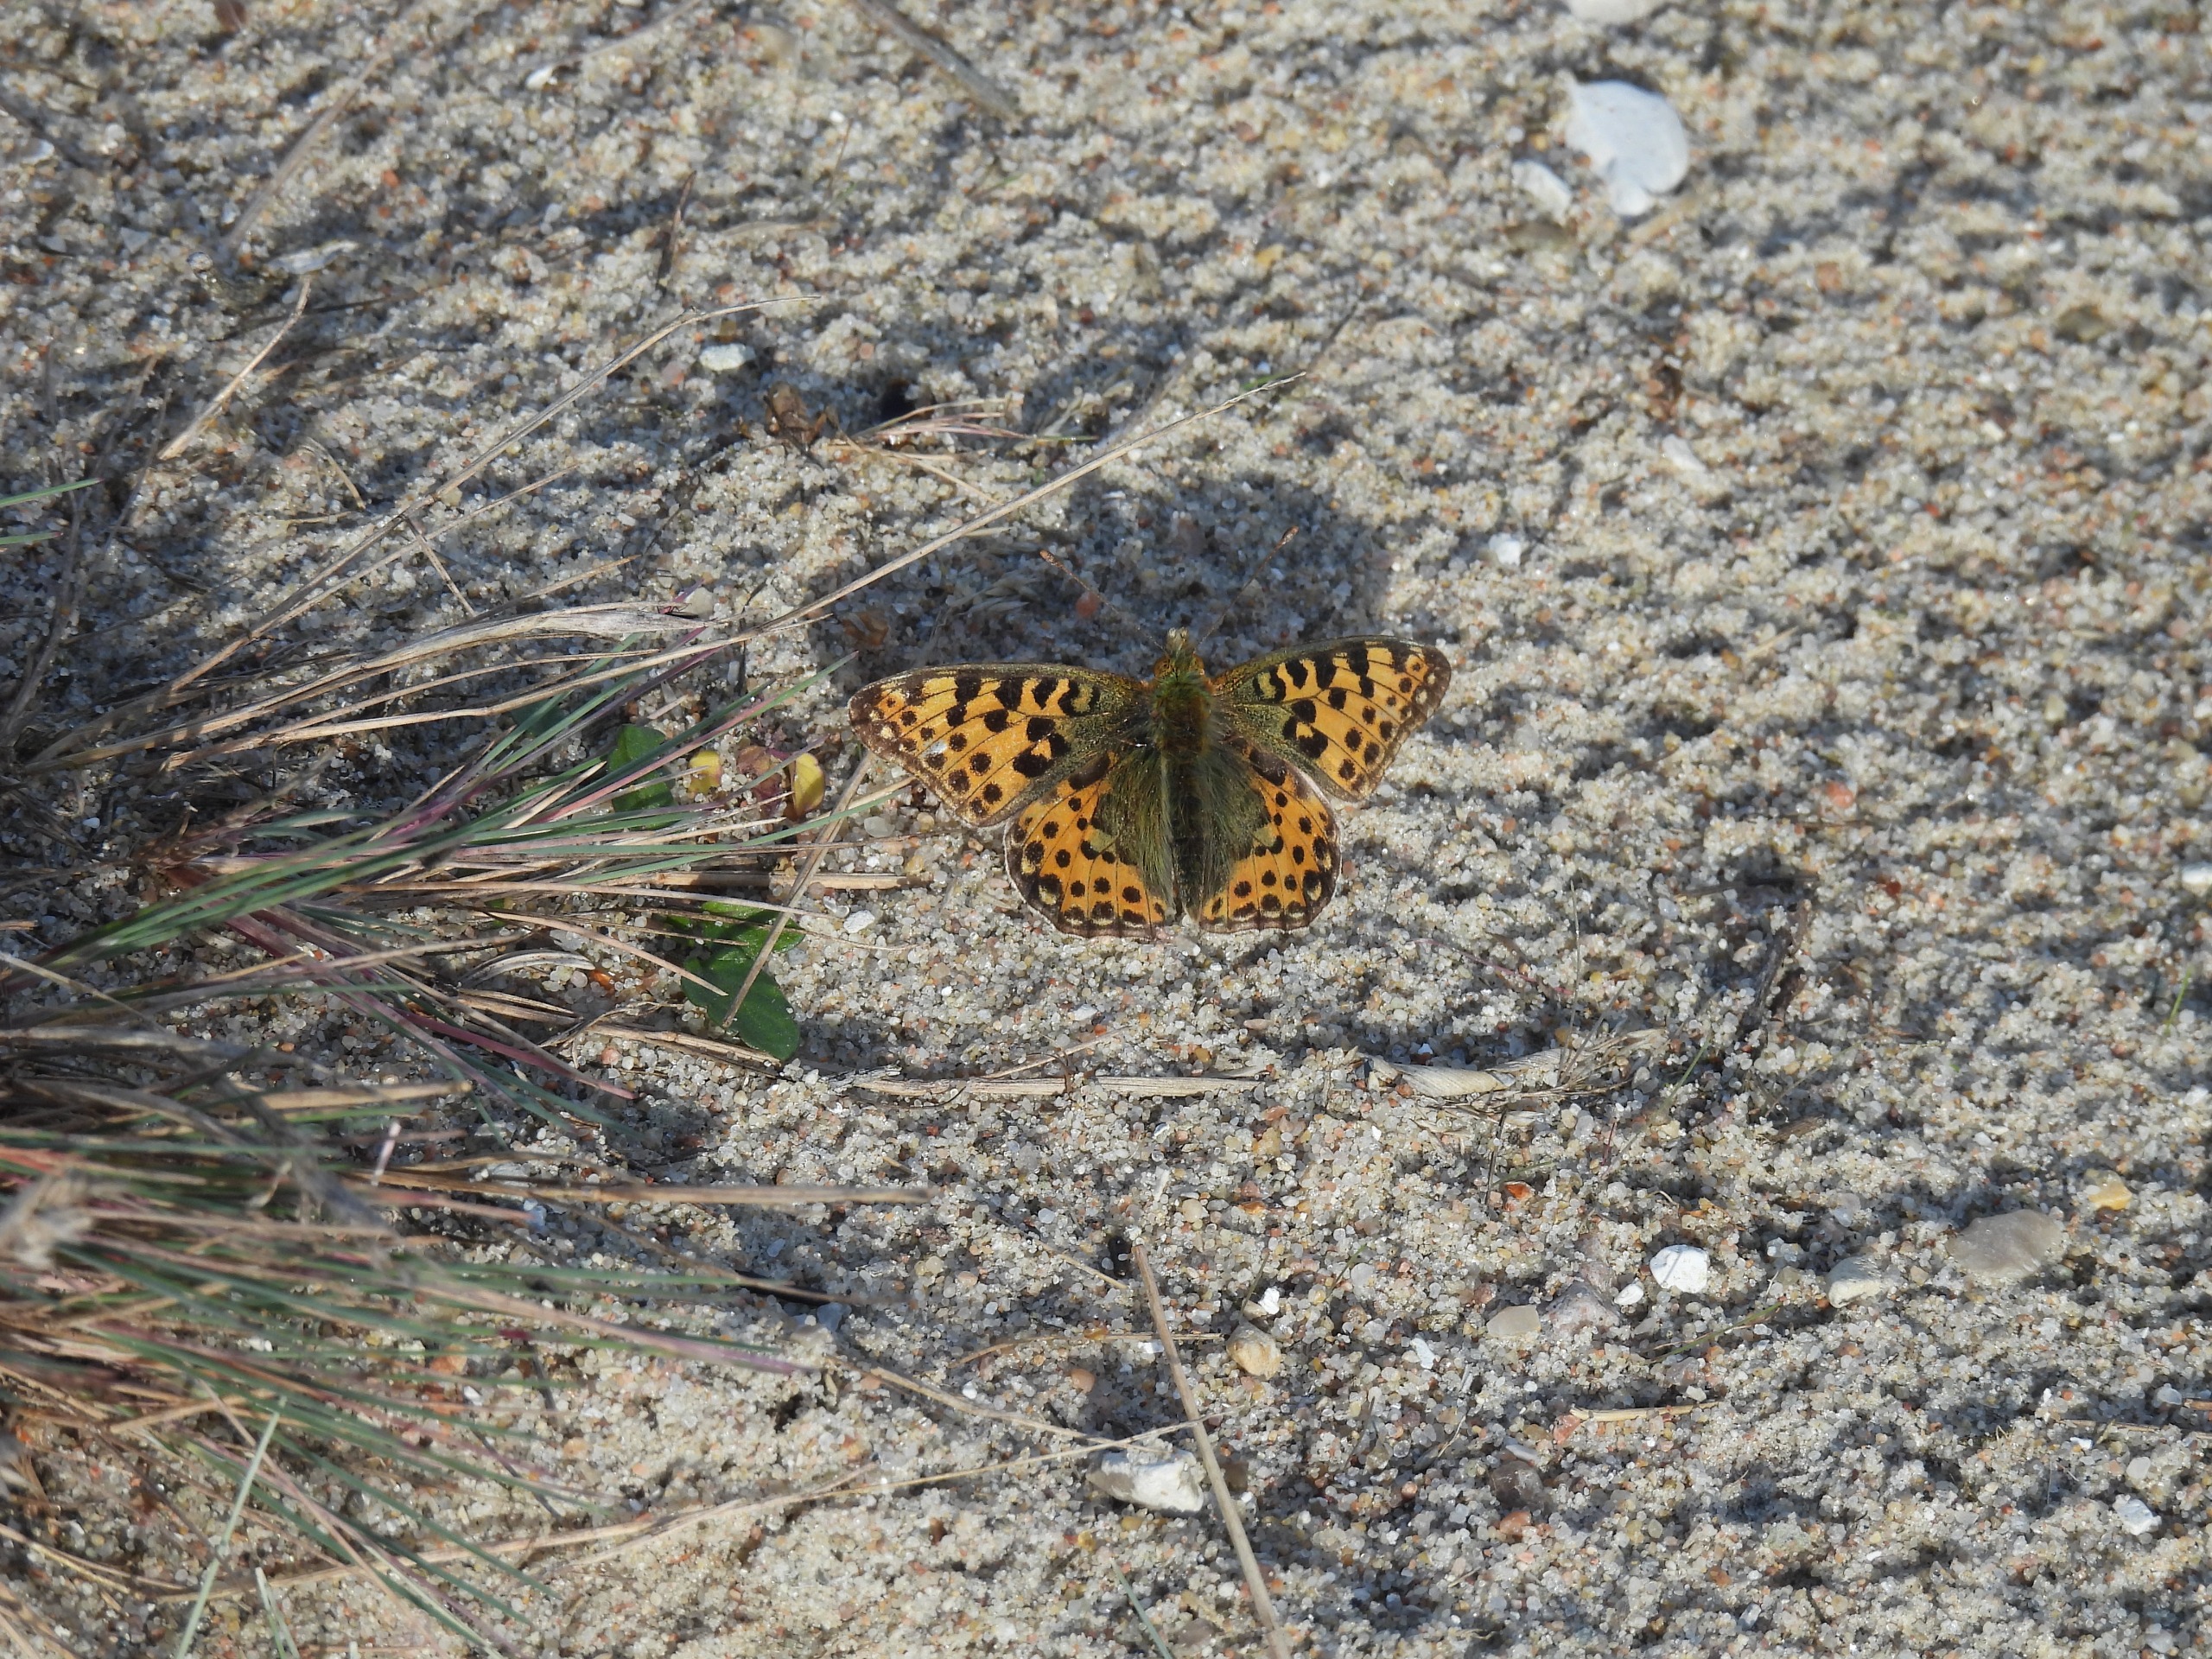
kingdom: Animalia
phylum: Arthropoda
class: Insecta
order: Lepidoptera
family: Nymphalidae
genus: Issoria
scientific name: Issoria lathonia
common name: Storplettet perlemorsommerfugl
